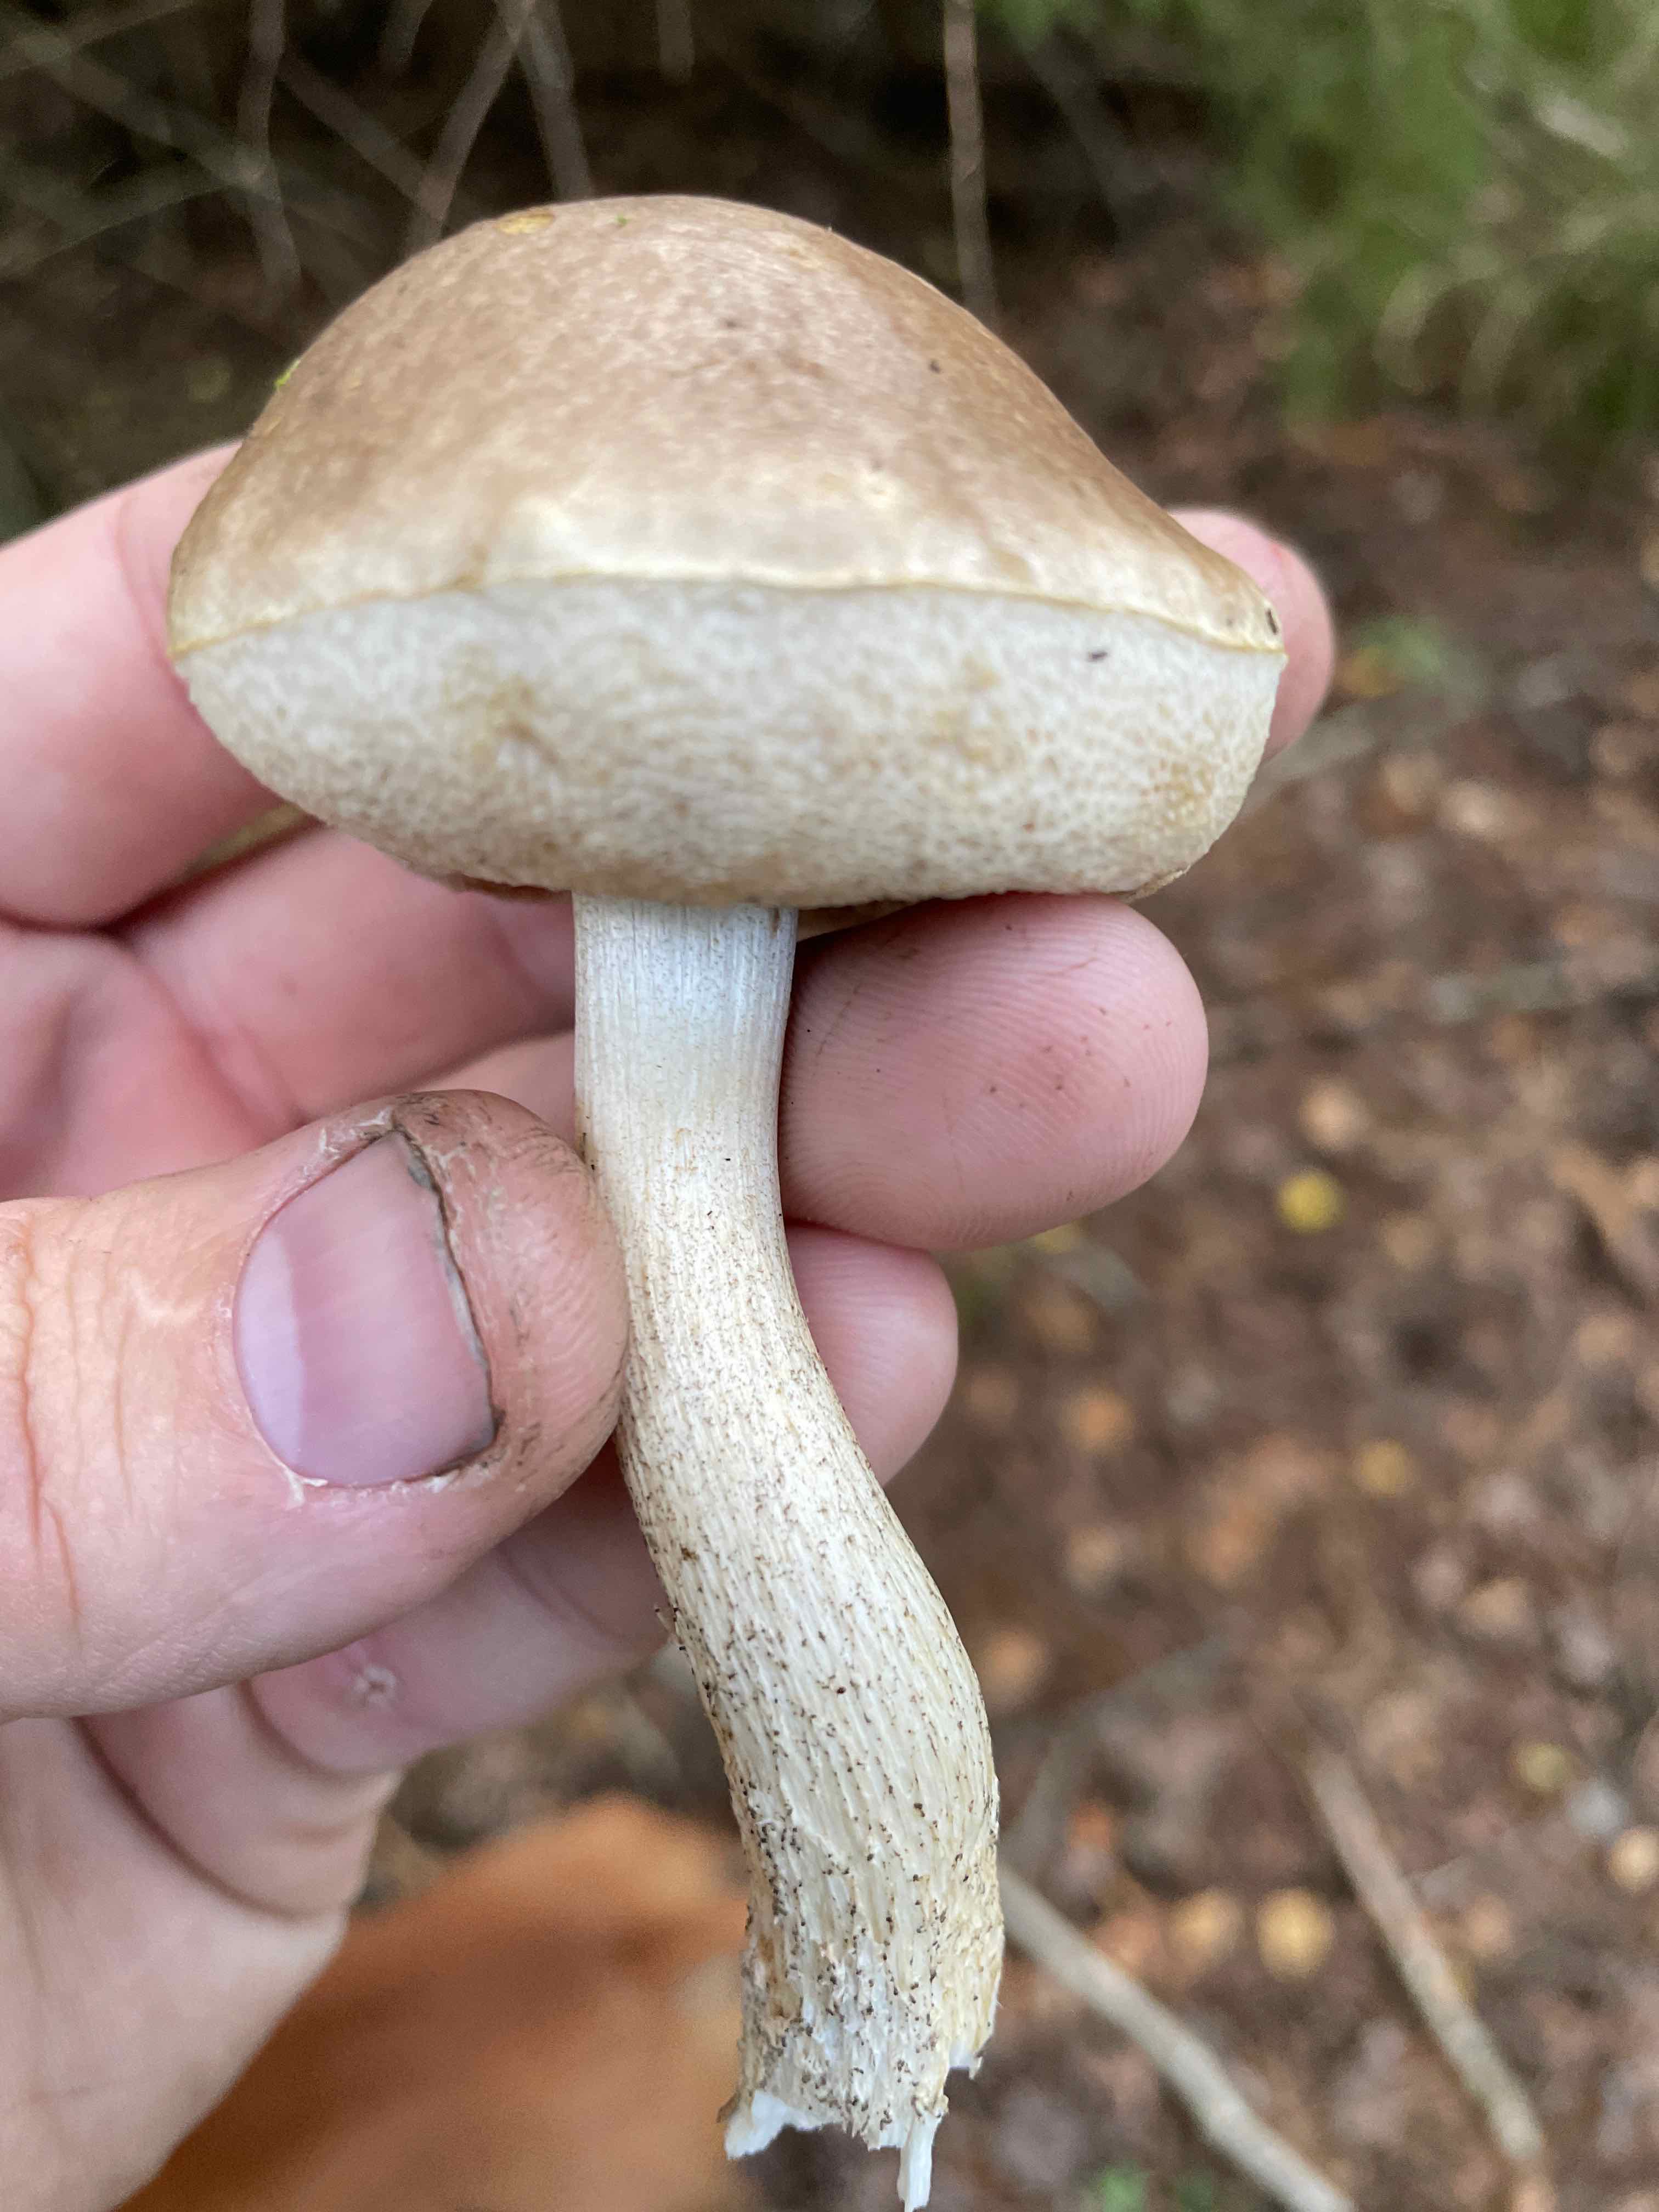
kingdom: Fungi
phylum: Basidiomycota
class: Agaricomycetes
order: Boletales
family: Boletaceae
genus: Leccinum
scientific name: Leccinum
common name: skælrørhat
